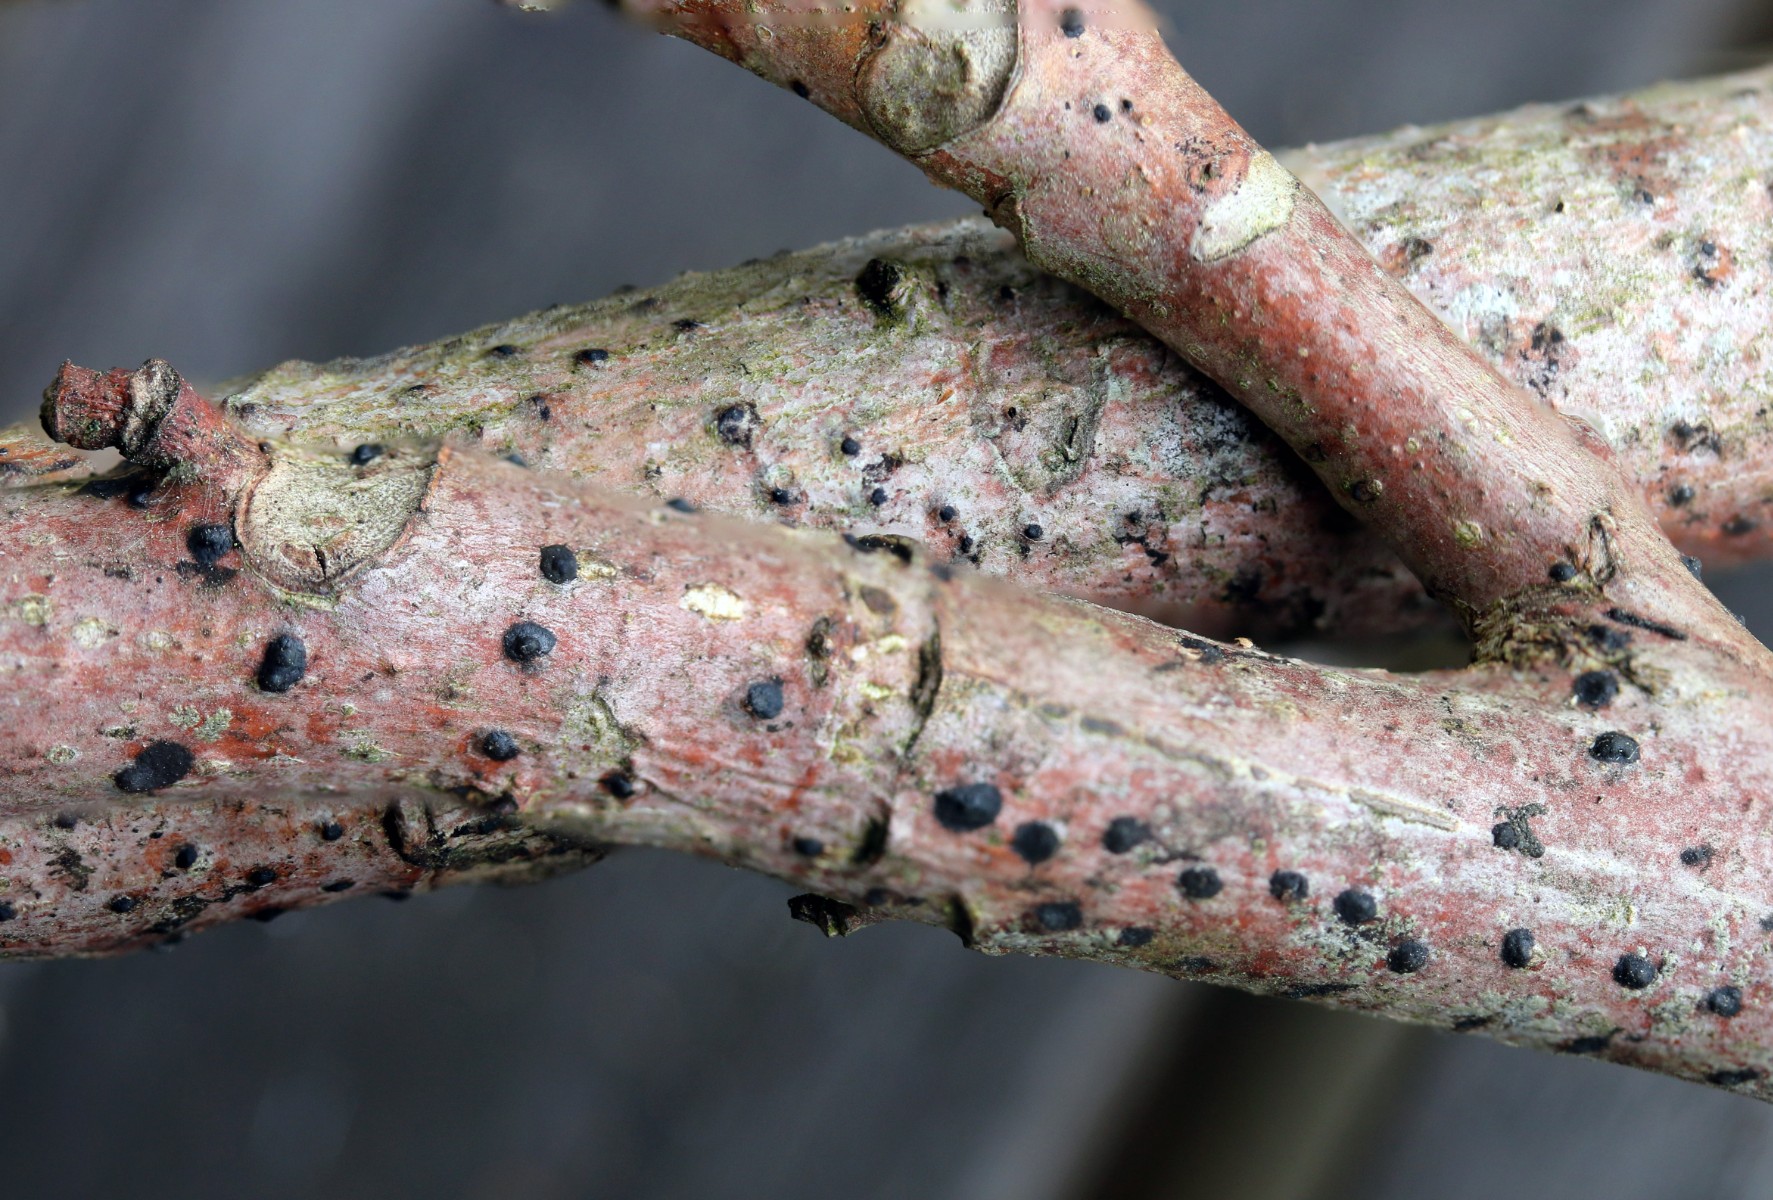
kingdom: Fungi
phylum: Ascomycota
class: Sordariomycetes
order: Diaporthales
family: Juglanconidaceae
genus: Juglanconis
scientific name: Juglanconis pterocaryae
